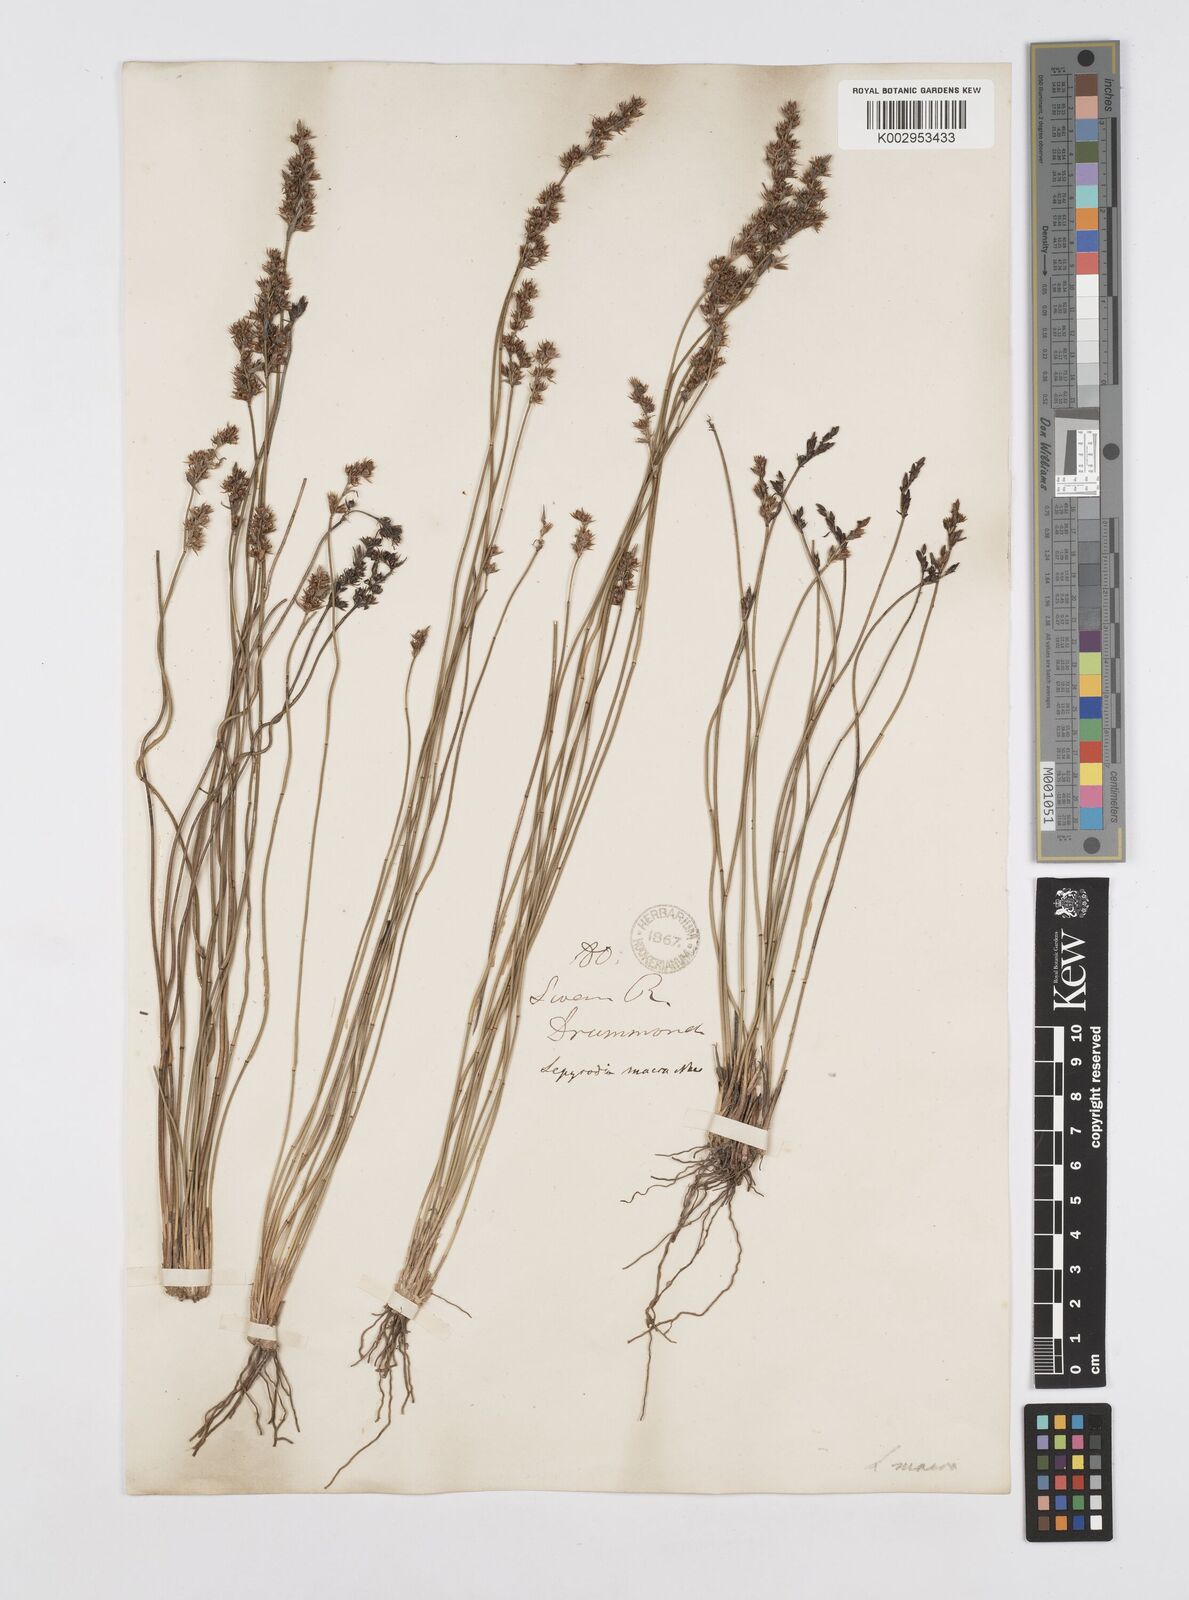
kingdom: Plantae
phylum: Tracheophyta
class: Liliopsida
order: Poales
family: Restionaceae
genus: Lepyrodia
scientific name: Lepyrodia macra
